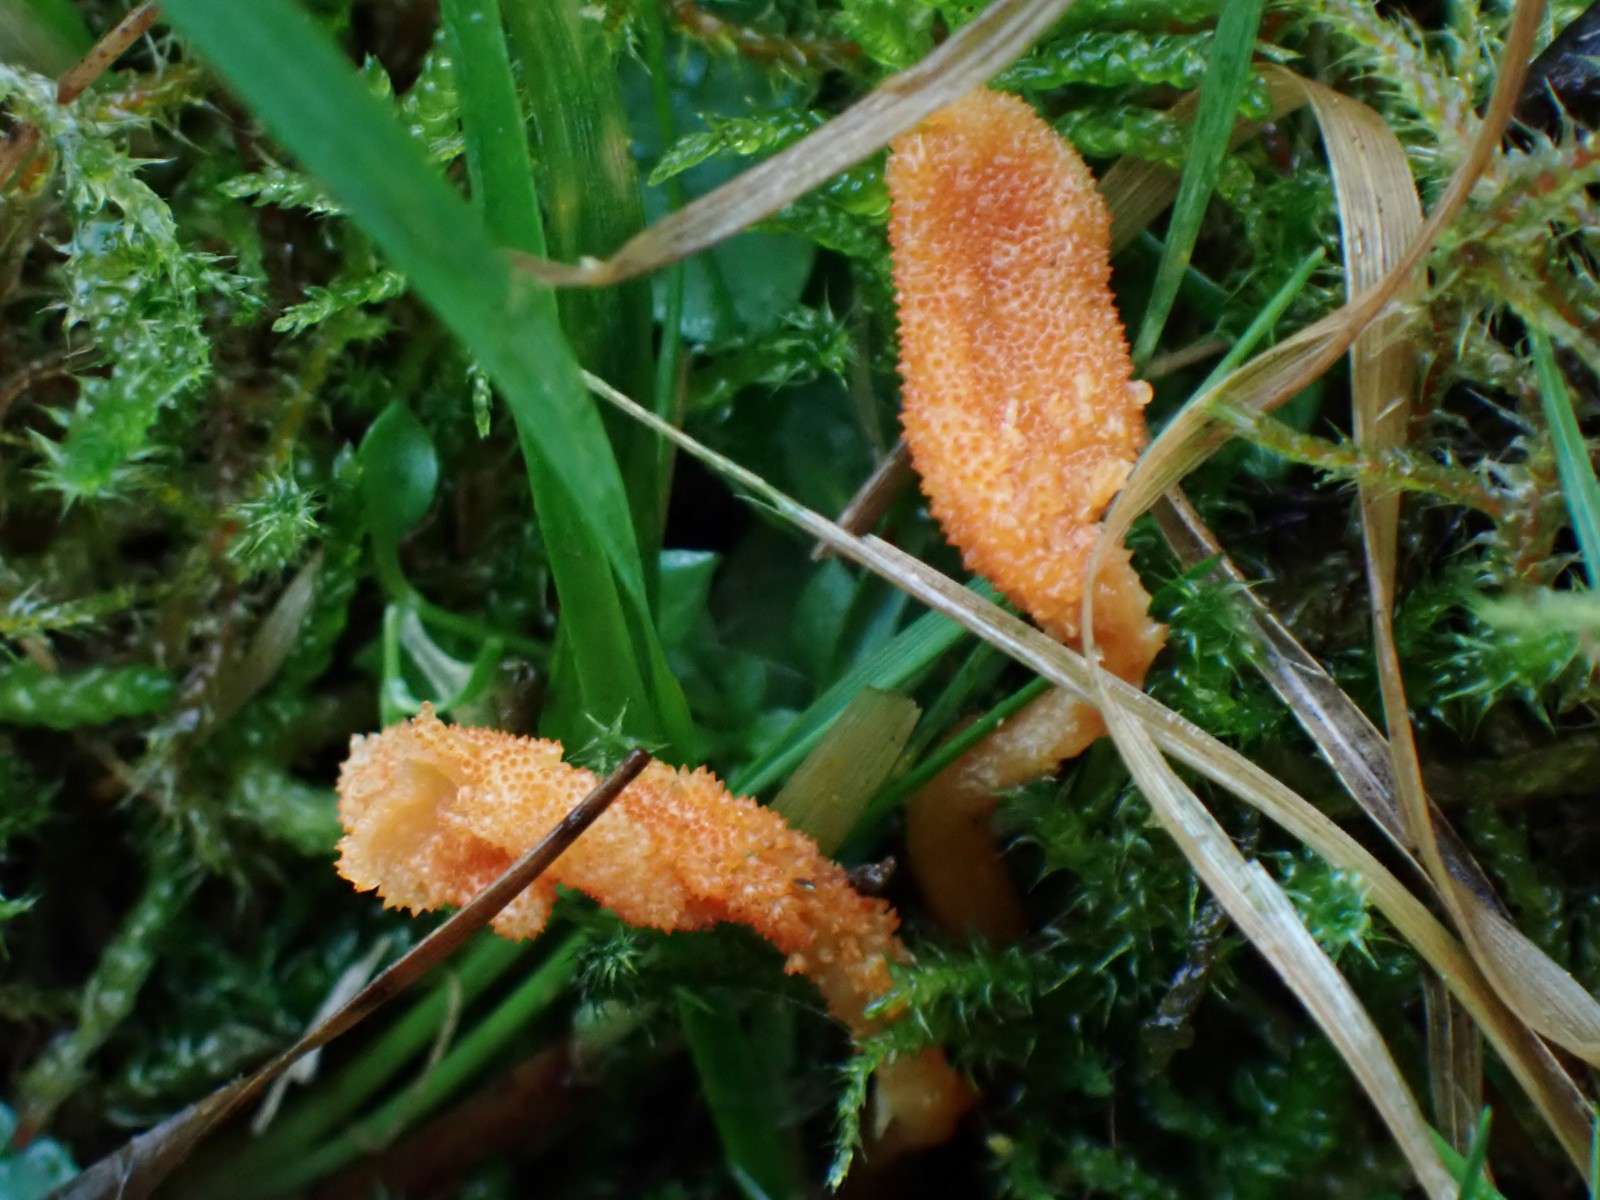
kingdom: Fungi
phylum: Ascomycota
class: Sordariomycetes
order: Hypocreales
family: Cordycipitaceae
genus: Cordyceps
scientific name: Cordyceps militaris
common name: puppe-snyltekølle
